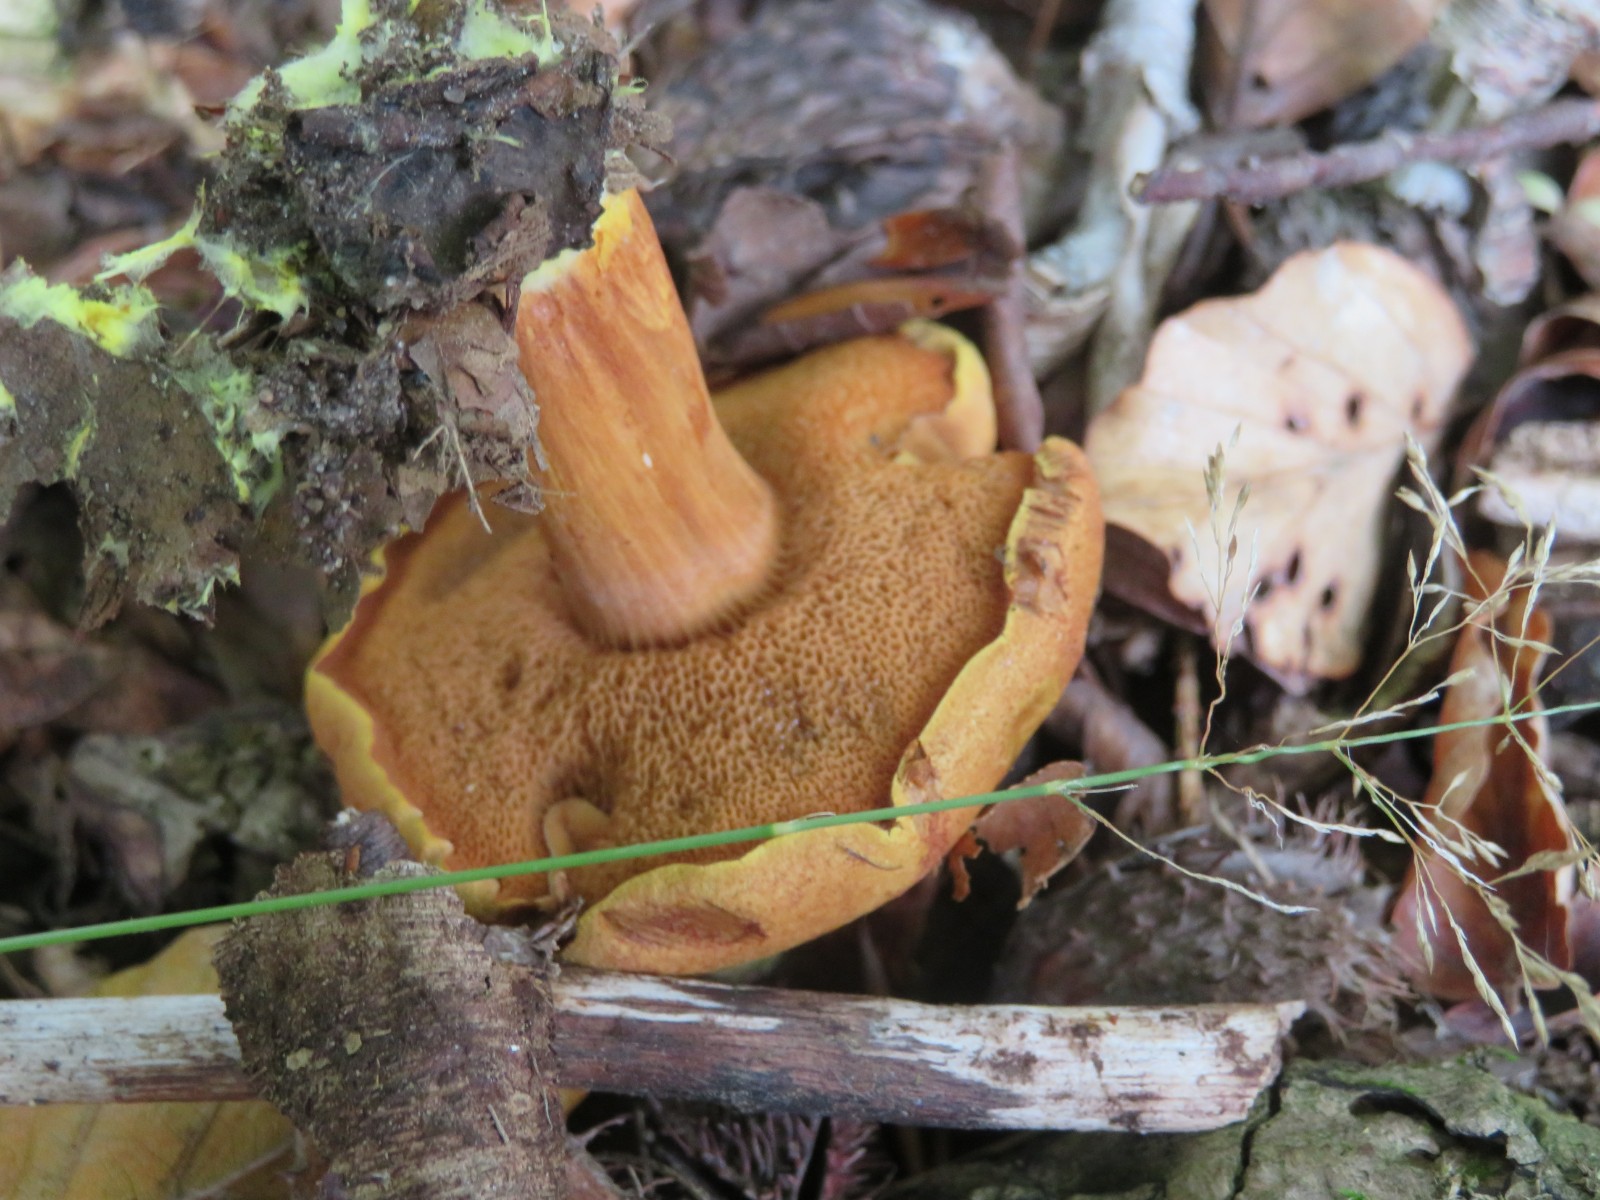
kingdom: Fungi
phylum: Basidiomycota
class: Agaricomycetes
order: Boletales
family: Boletaceae
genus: Chalciporus
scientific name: Chalciporus piperatus
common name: peberrørhat
